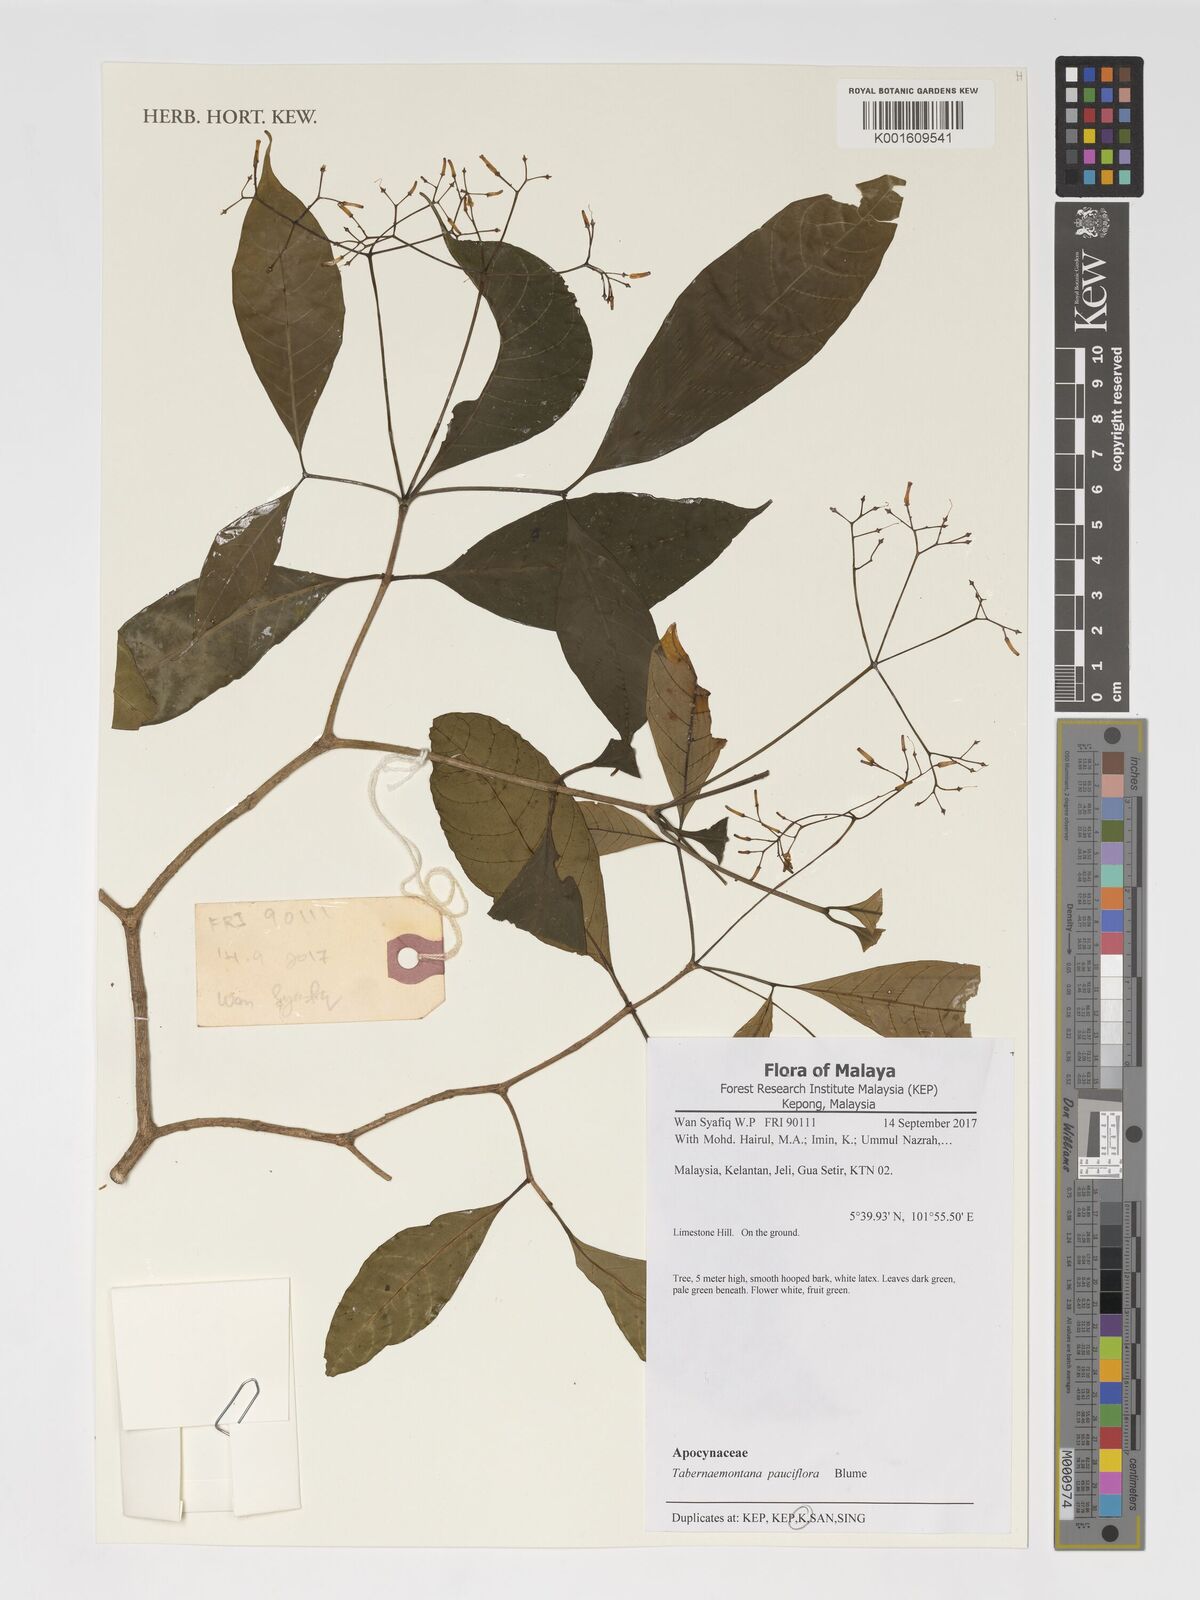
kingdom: Plantae
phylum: Tracheophyta
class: Magnoliopsida
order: Gentianales
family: Apocynaceae
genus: Tabernaemontana
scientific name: Tabernaemontana pauciflora
